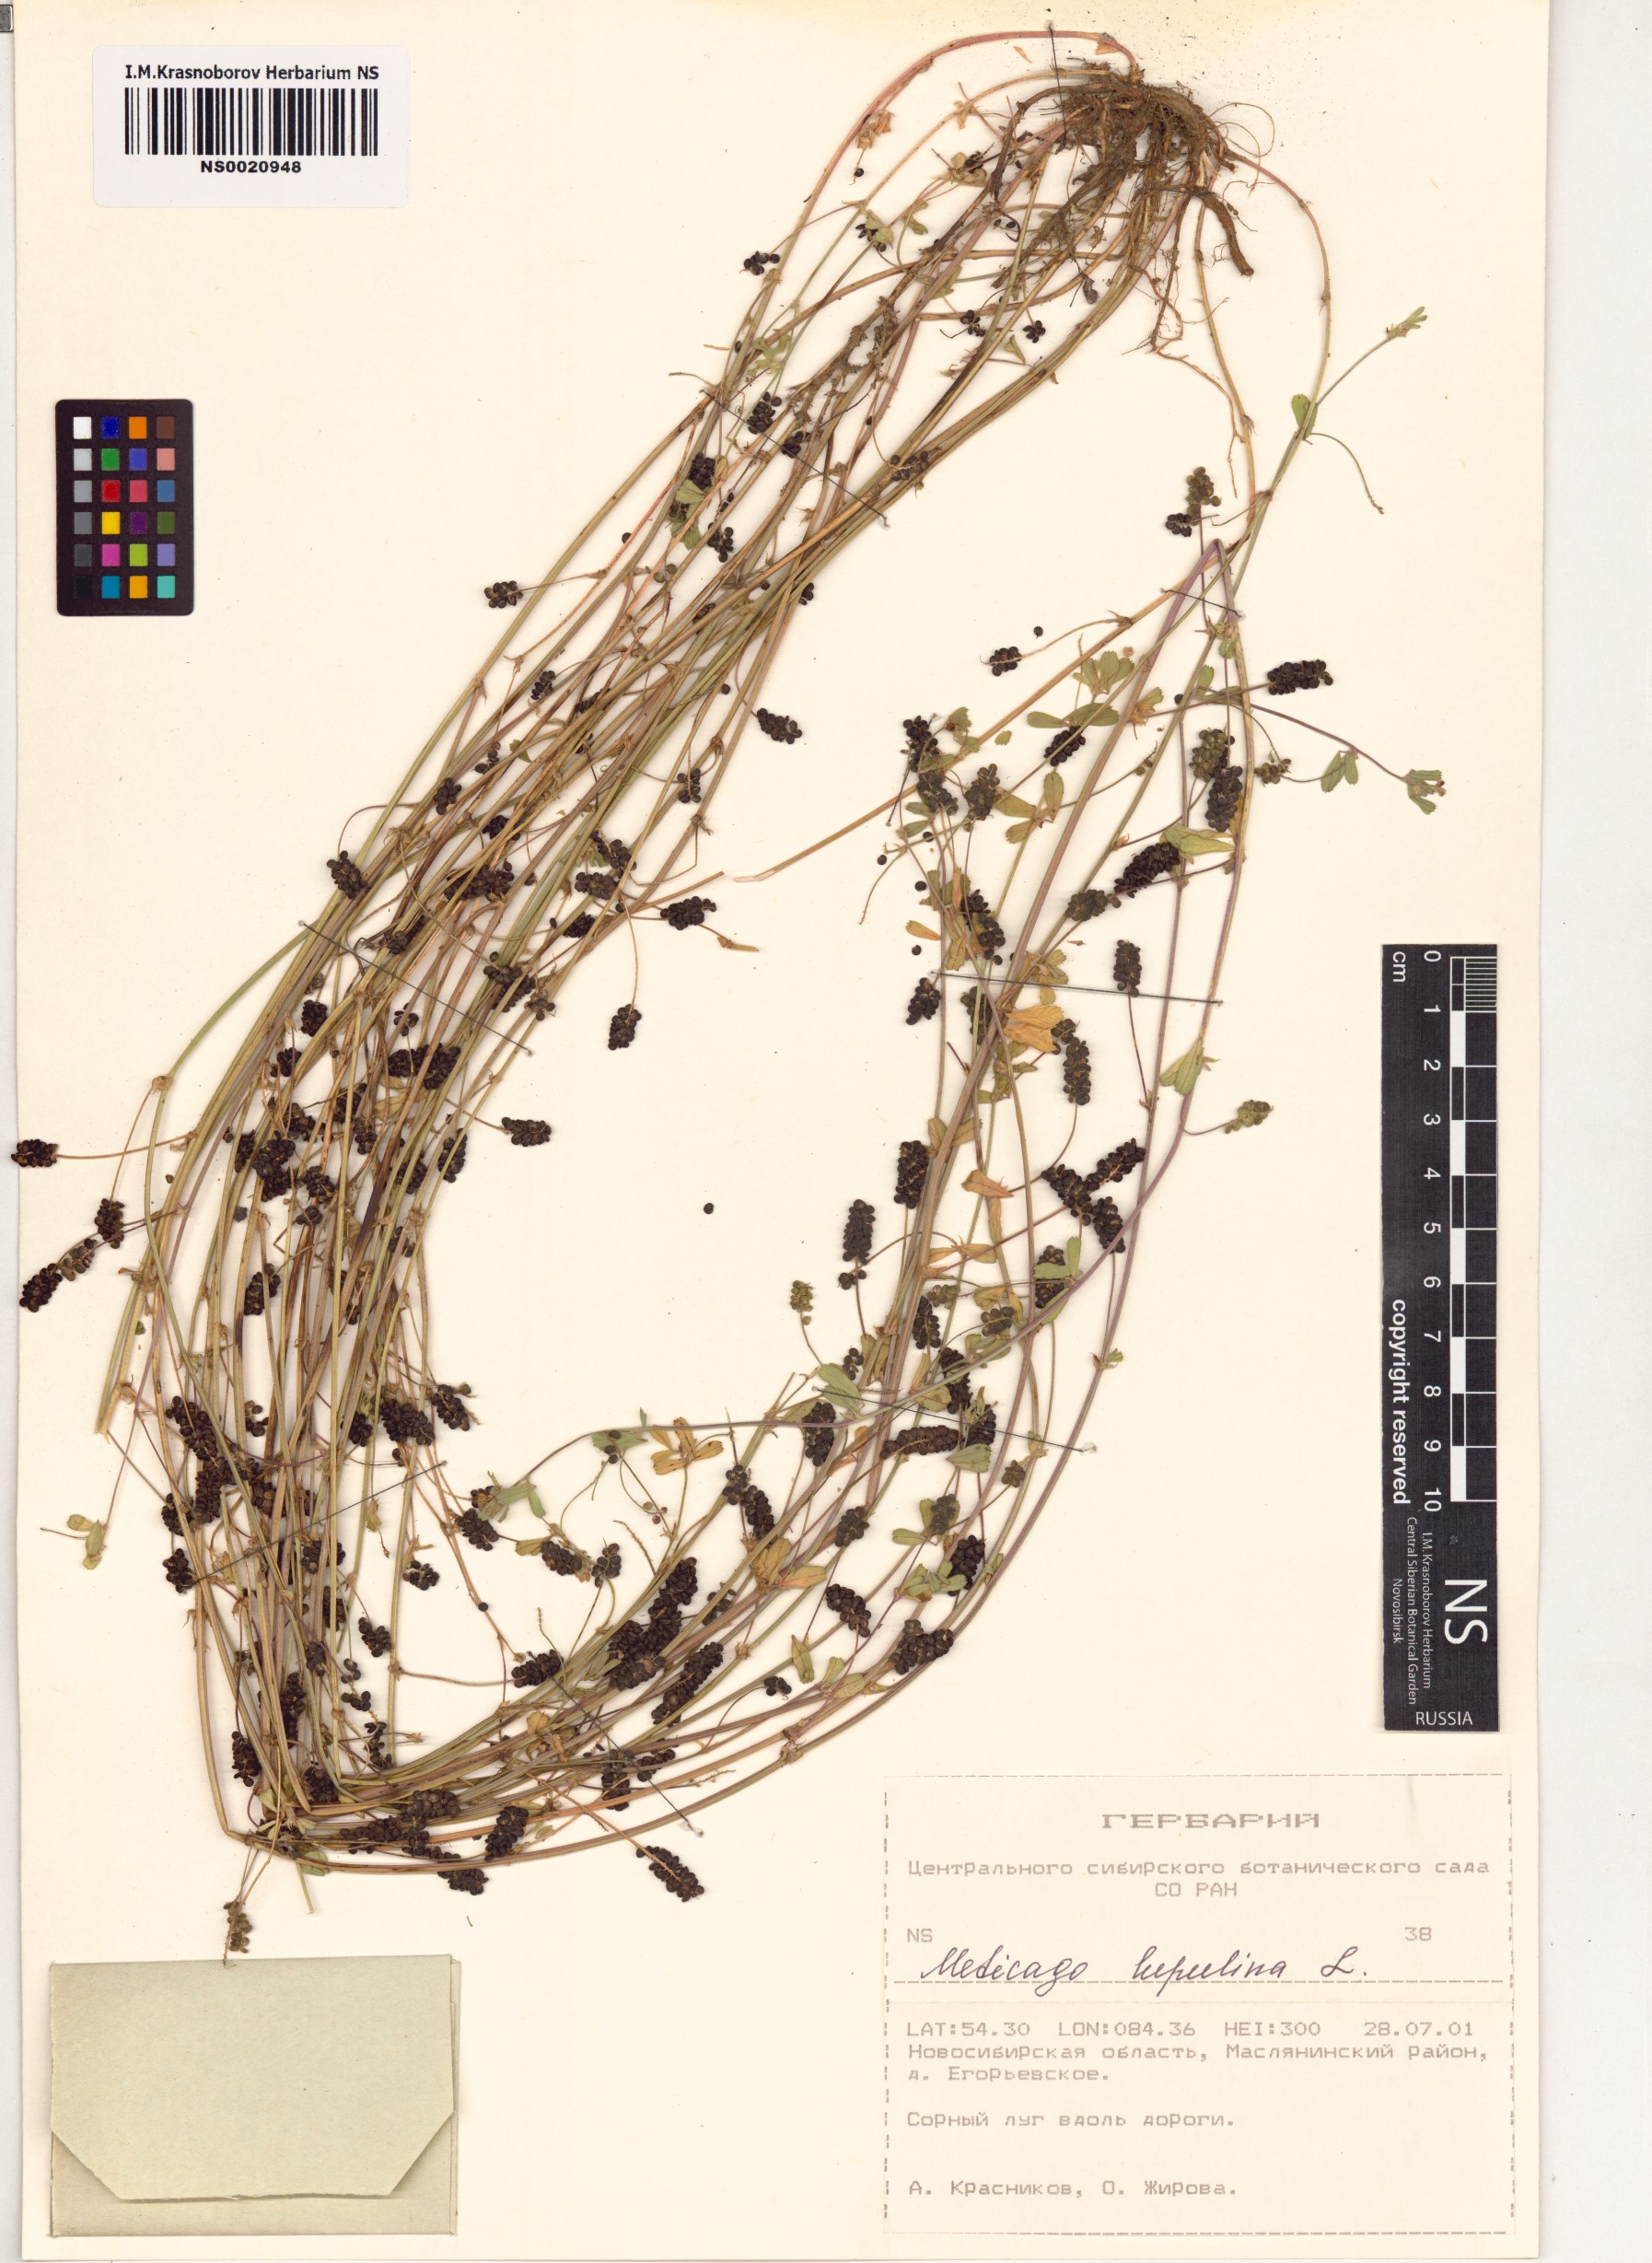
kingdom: Plantae
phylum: Tracheophyta
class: Magnoliopsida
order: Fabales
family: Fabaceae
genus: Medicago
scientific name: Medicago lupulina
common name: Black medick
